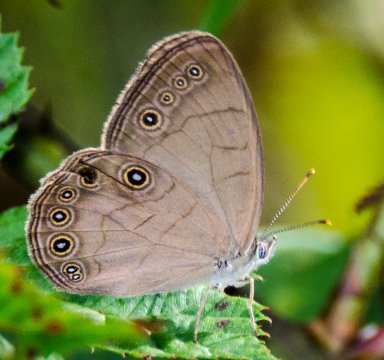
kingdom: Animalia
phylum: Arthropoda
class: Insecta
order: Lepidoptera
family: Nymphalidae
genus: Lethe
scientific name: Lethe eurydice
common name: Appalachian Eyed Brown
